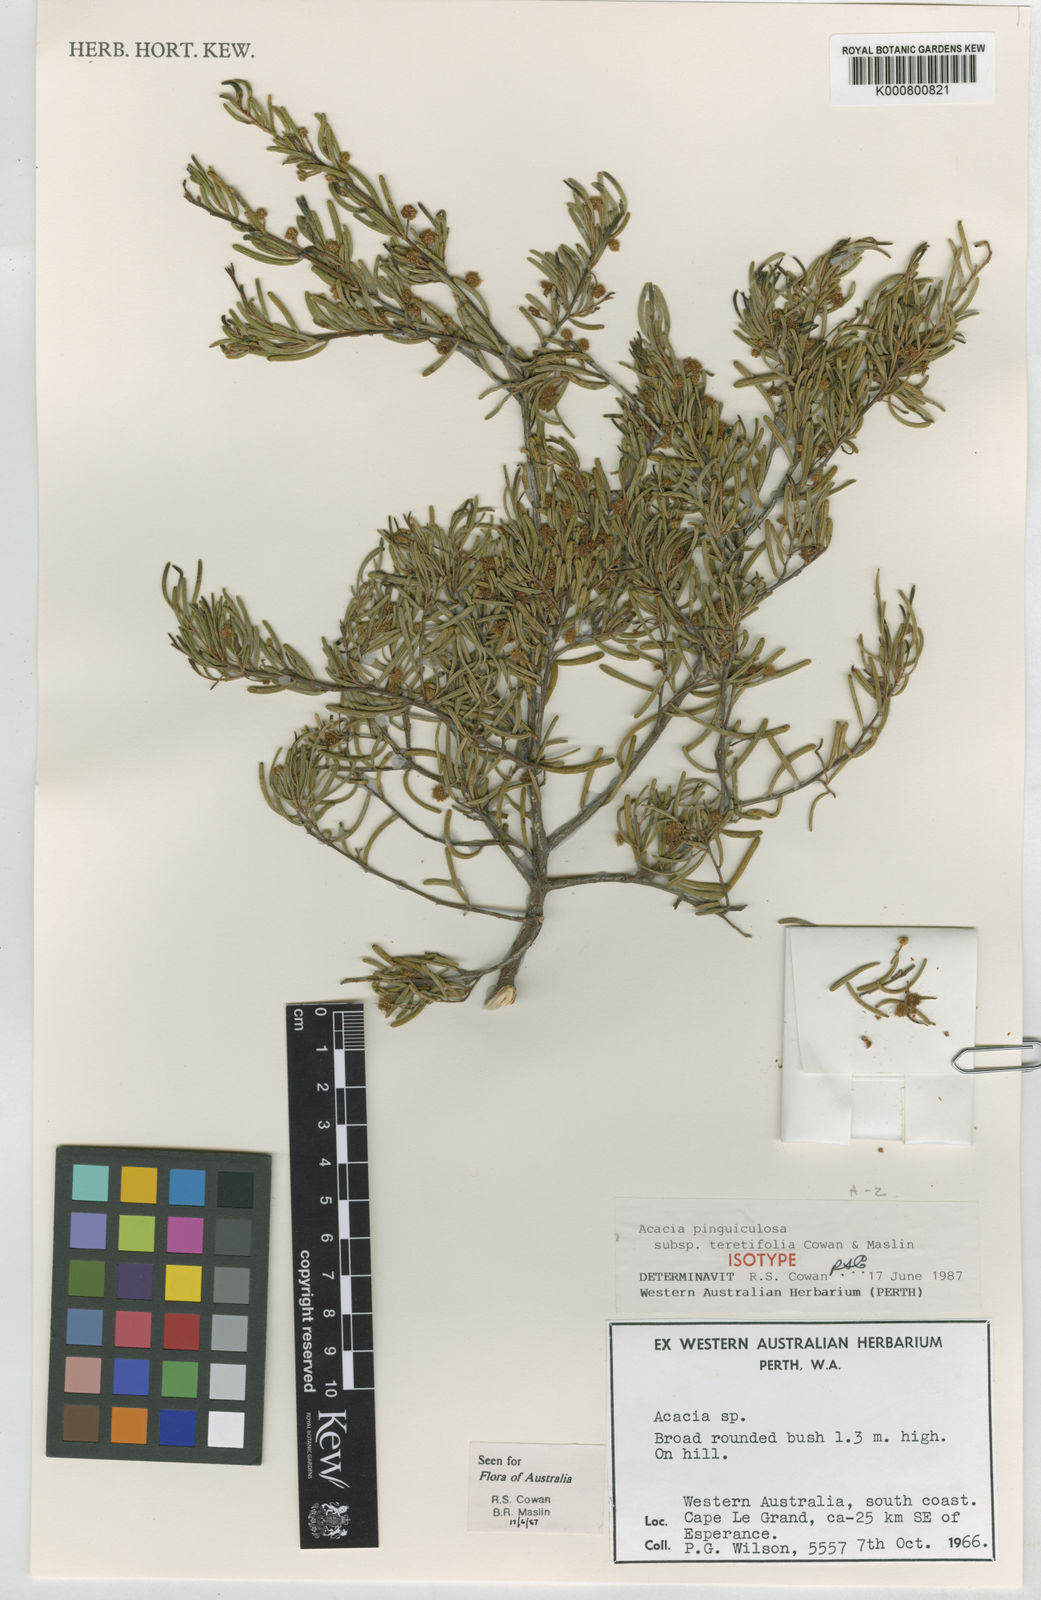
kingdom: Plantae
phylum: Tracheophyta
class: Magnoliopsida
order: Fabales
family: Fabaceae
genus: Acacia
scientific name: Acacia pinguiculosa
